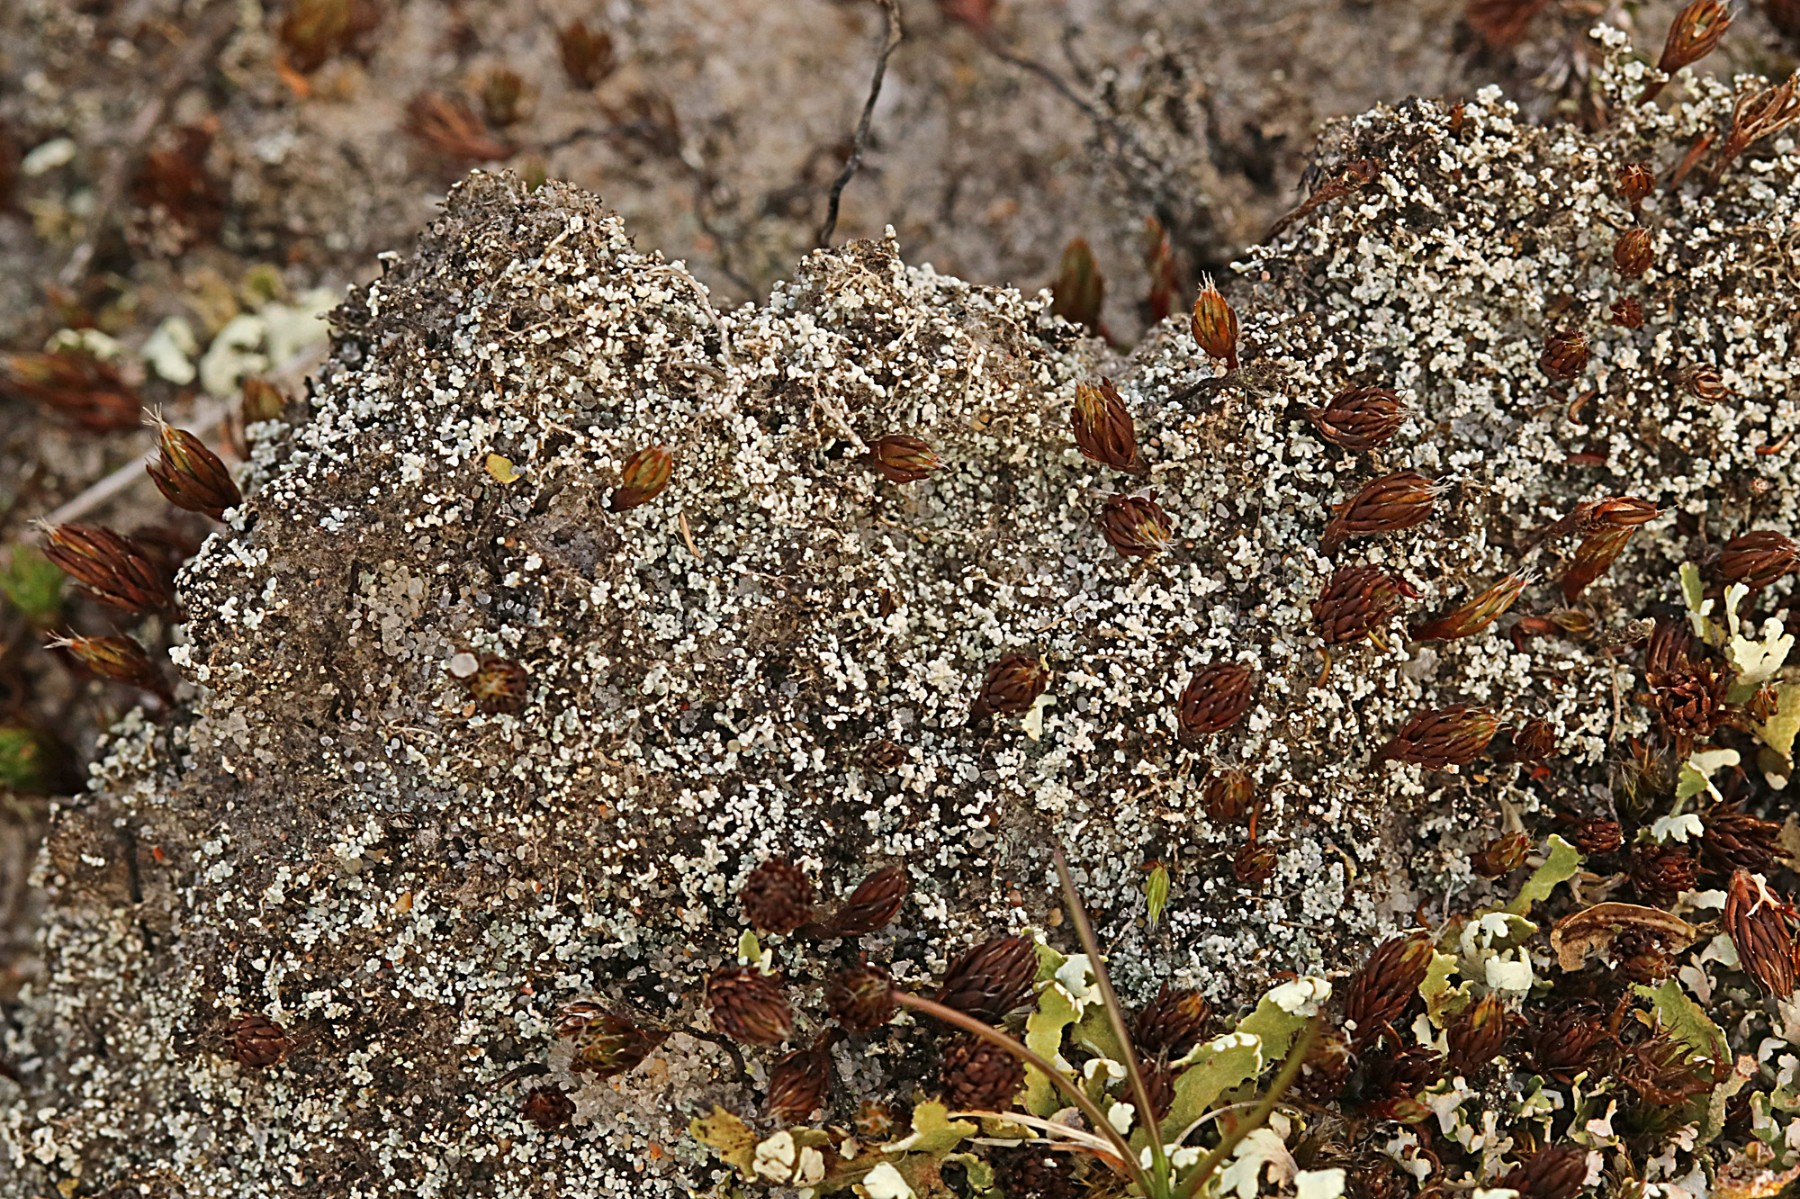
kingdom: Fungi
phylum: Ascomycota
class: Lecanoromycetes
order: Lecanorales
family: Stereocaulaceae
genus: Stereocaulon
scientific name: Stereocaulon condensatum
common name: lav korallav
